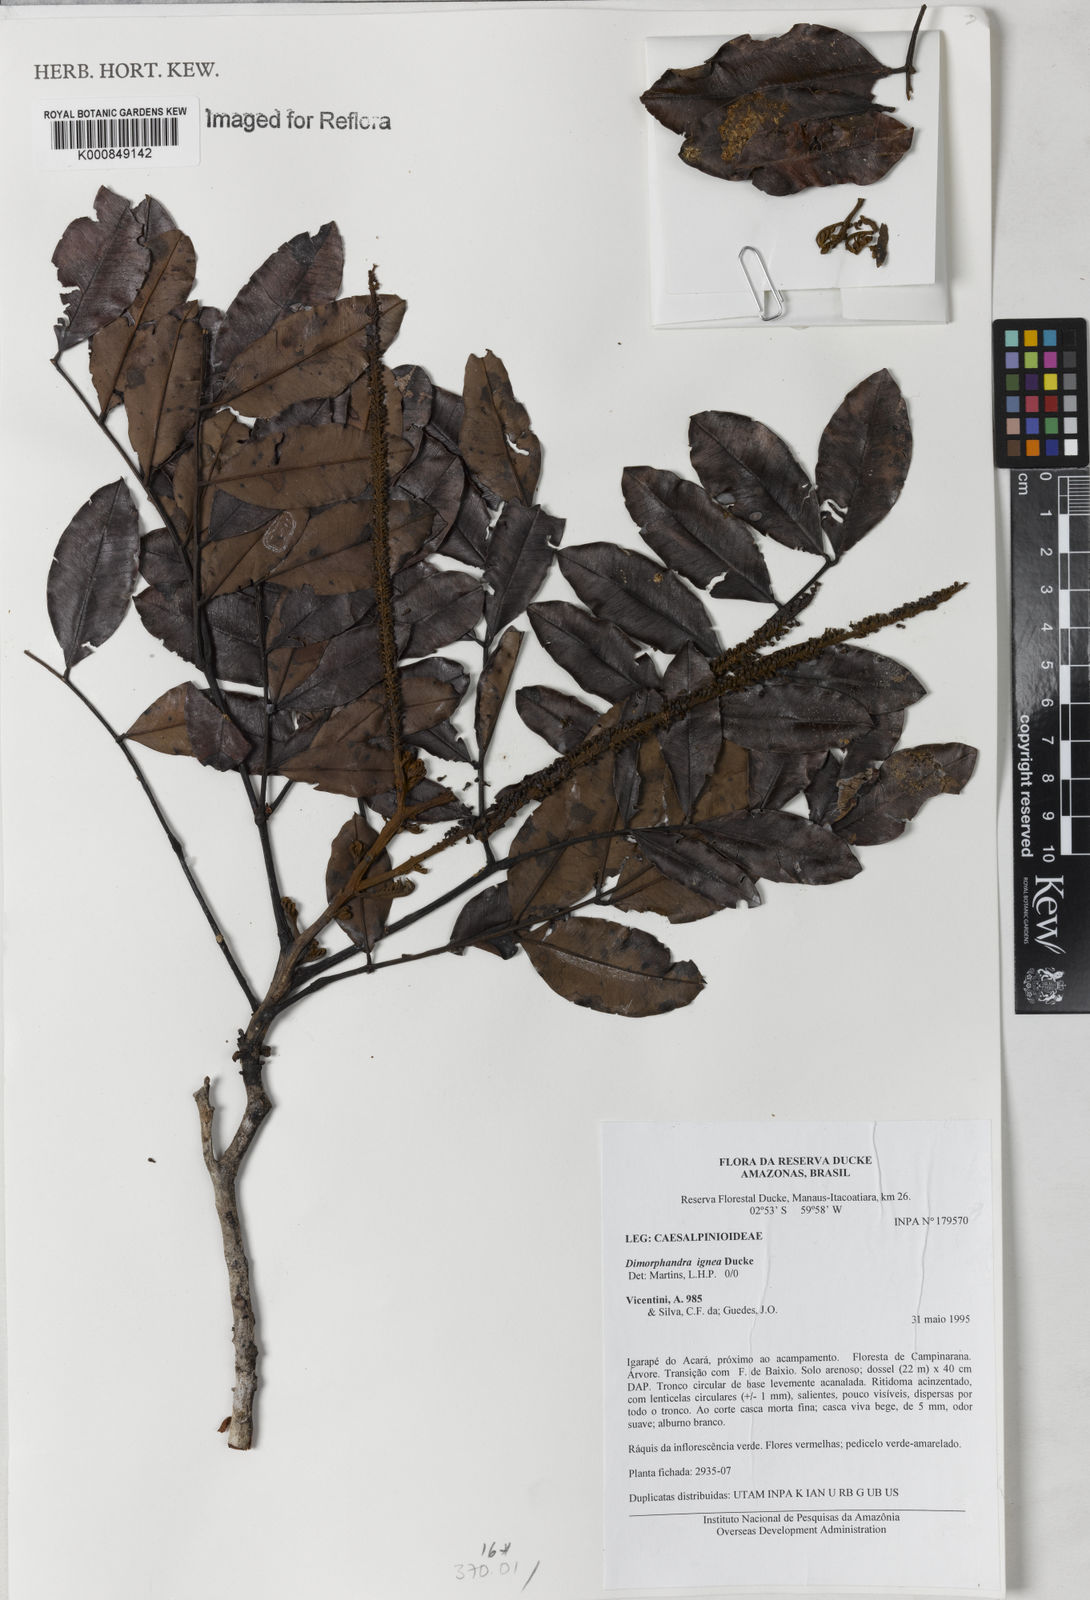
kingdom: Plantae
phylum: Tracheophyta
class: Magnoliopsida
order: Fabales
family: Fabaceae
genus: Dimorphandra
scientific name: Dimorphandra ignea
